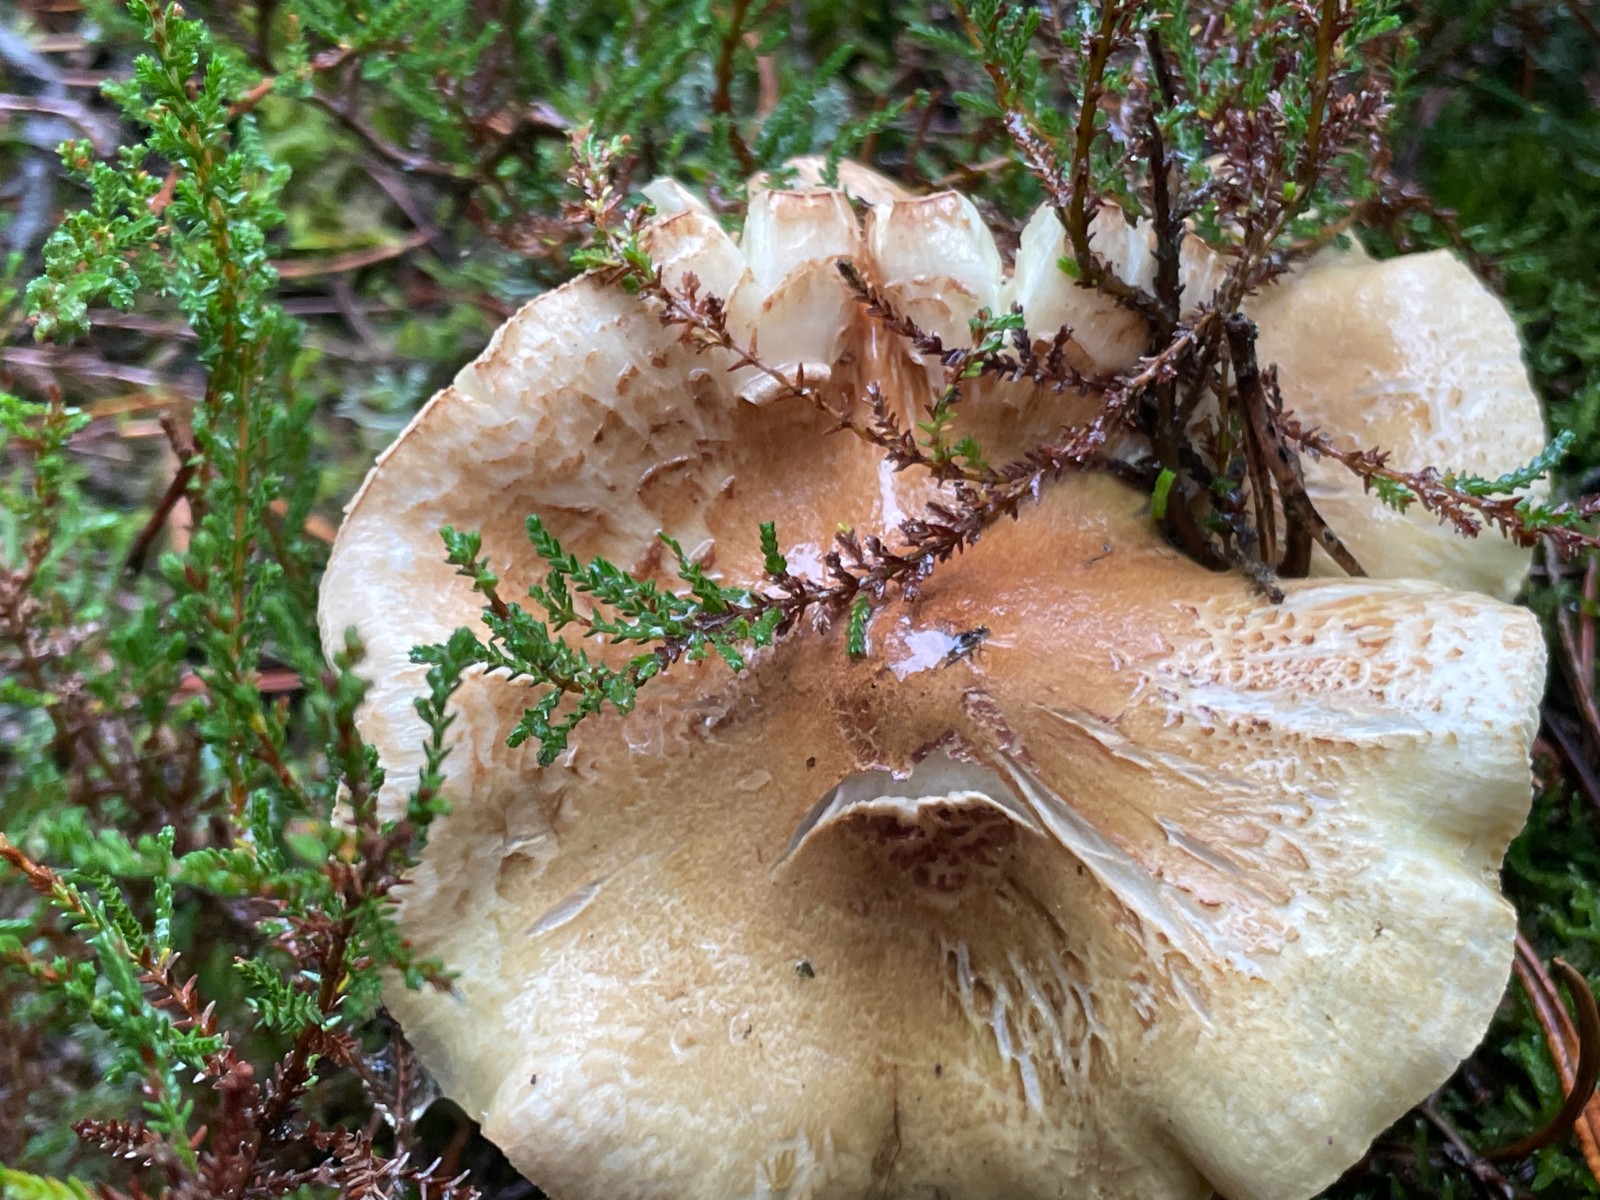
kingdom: Fungi
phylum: Basidiomycota
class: Agaricomycetes
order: Agaricales
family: Tricholomataceae
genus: Tricholoma
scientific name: Tricholoma aestuans
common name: kegle-ridderhat
